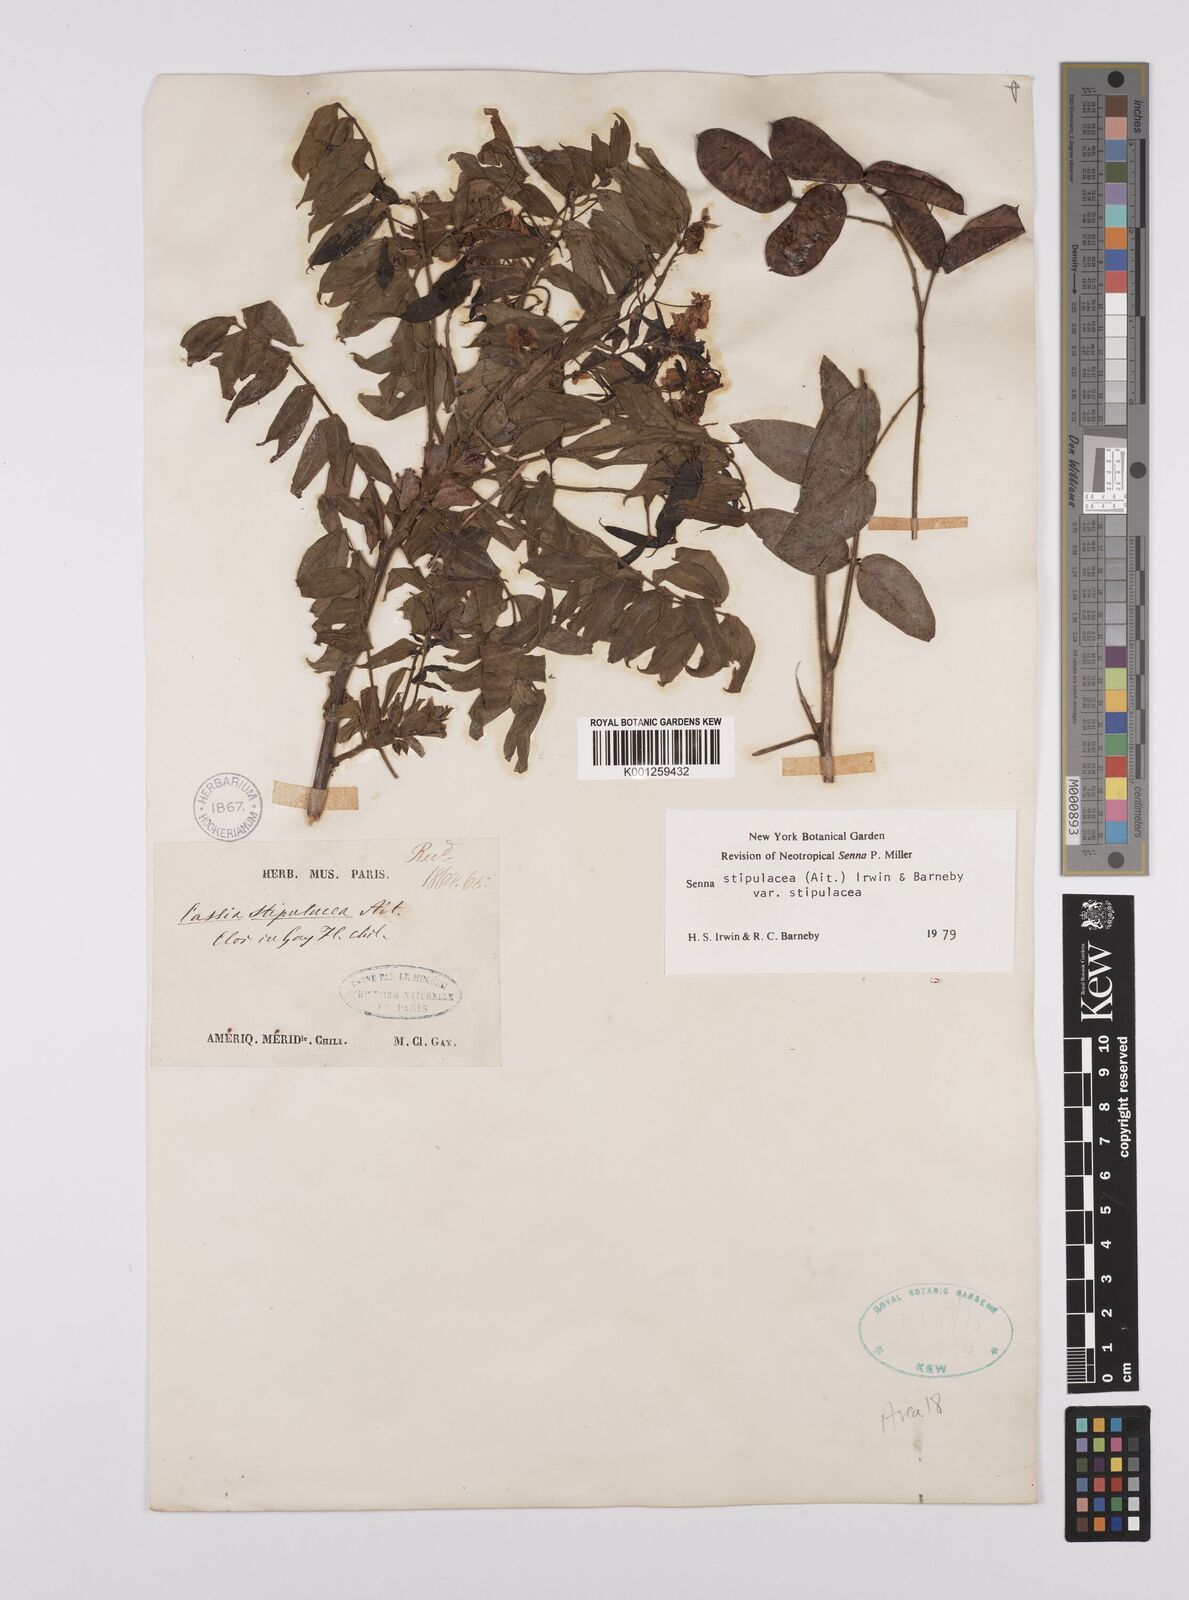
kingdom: Plantae
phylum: Tracheophyta
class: Magnoliopsida
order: Fabales
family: Fabaceae
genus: Senna
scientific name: Senna stipulacea
